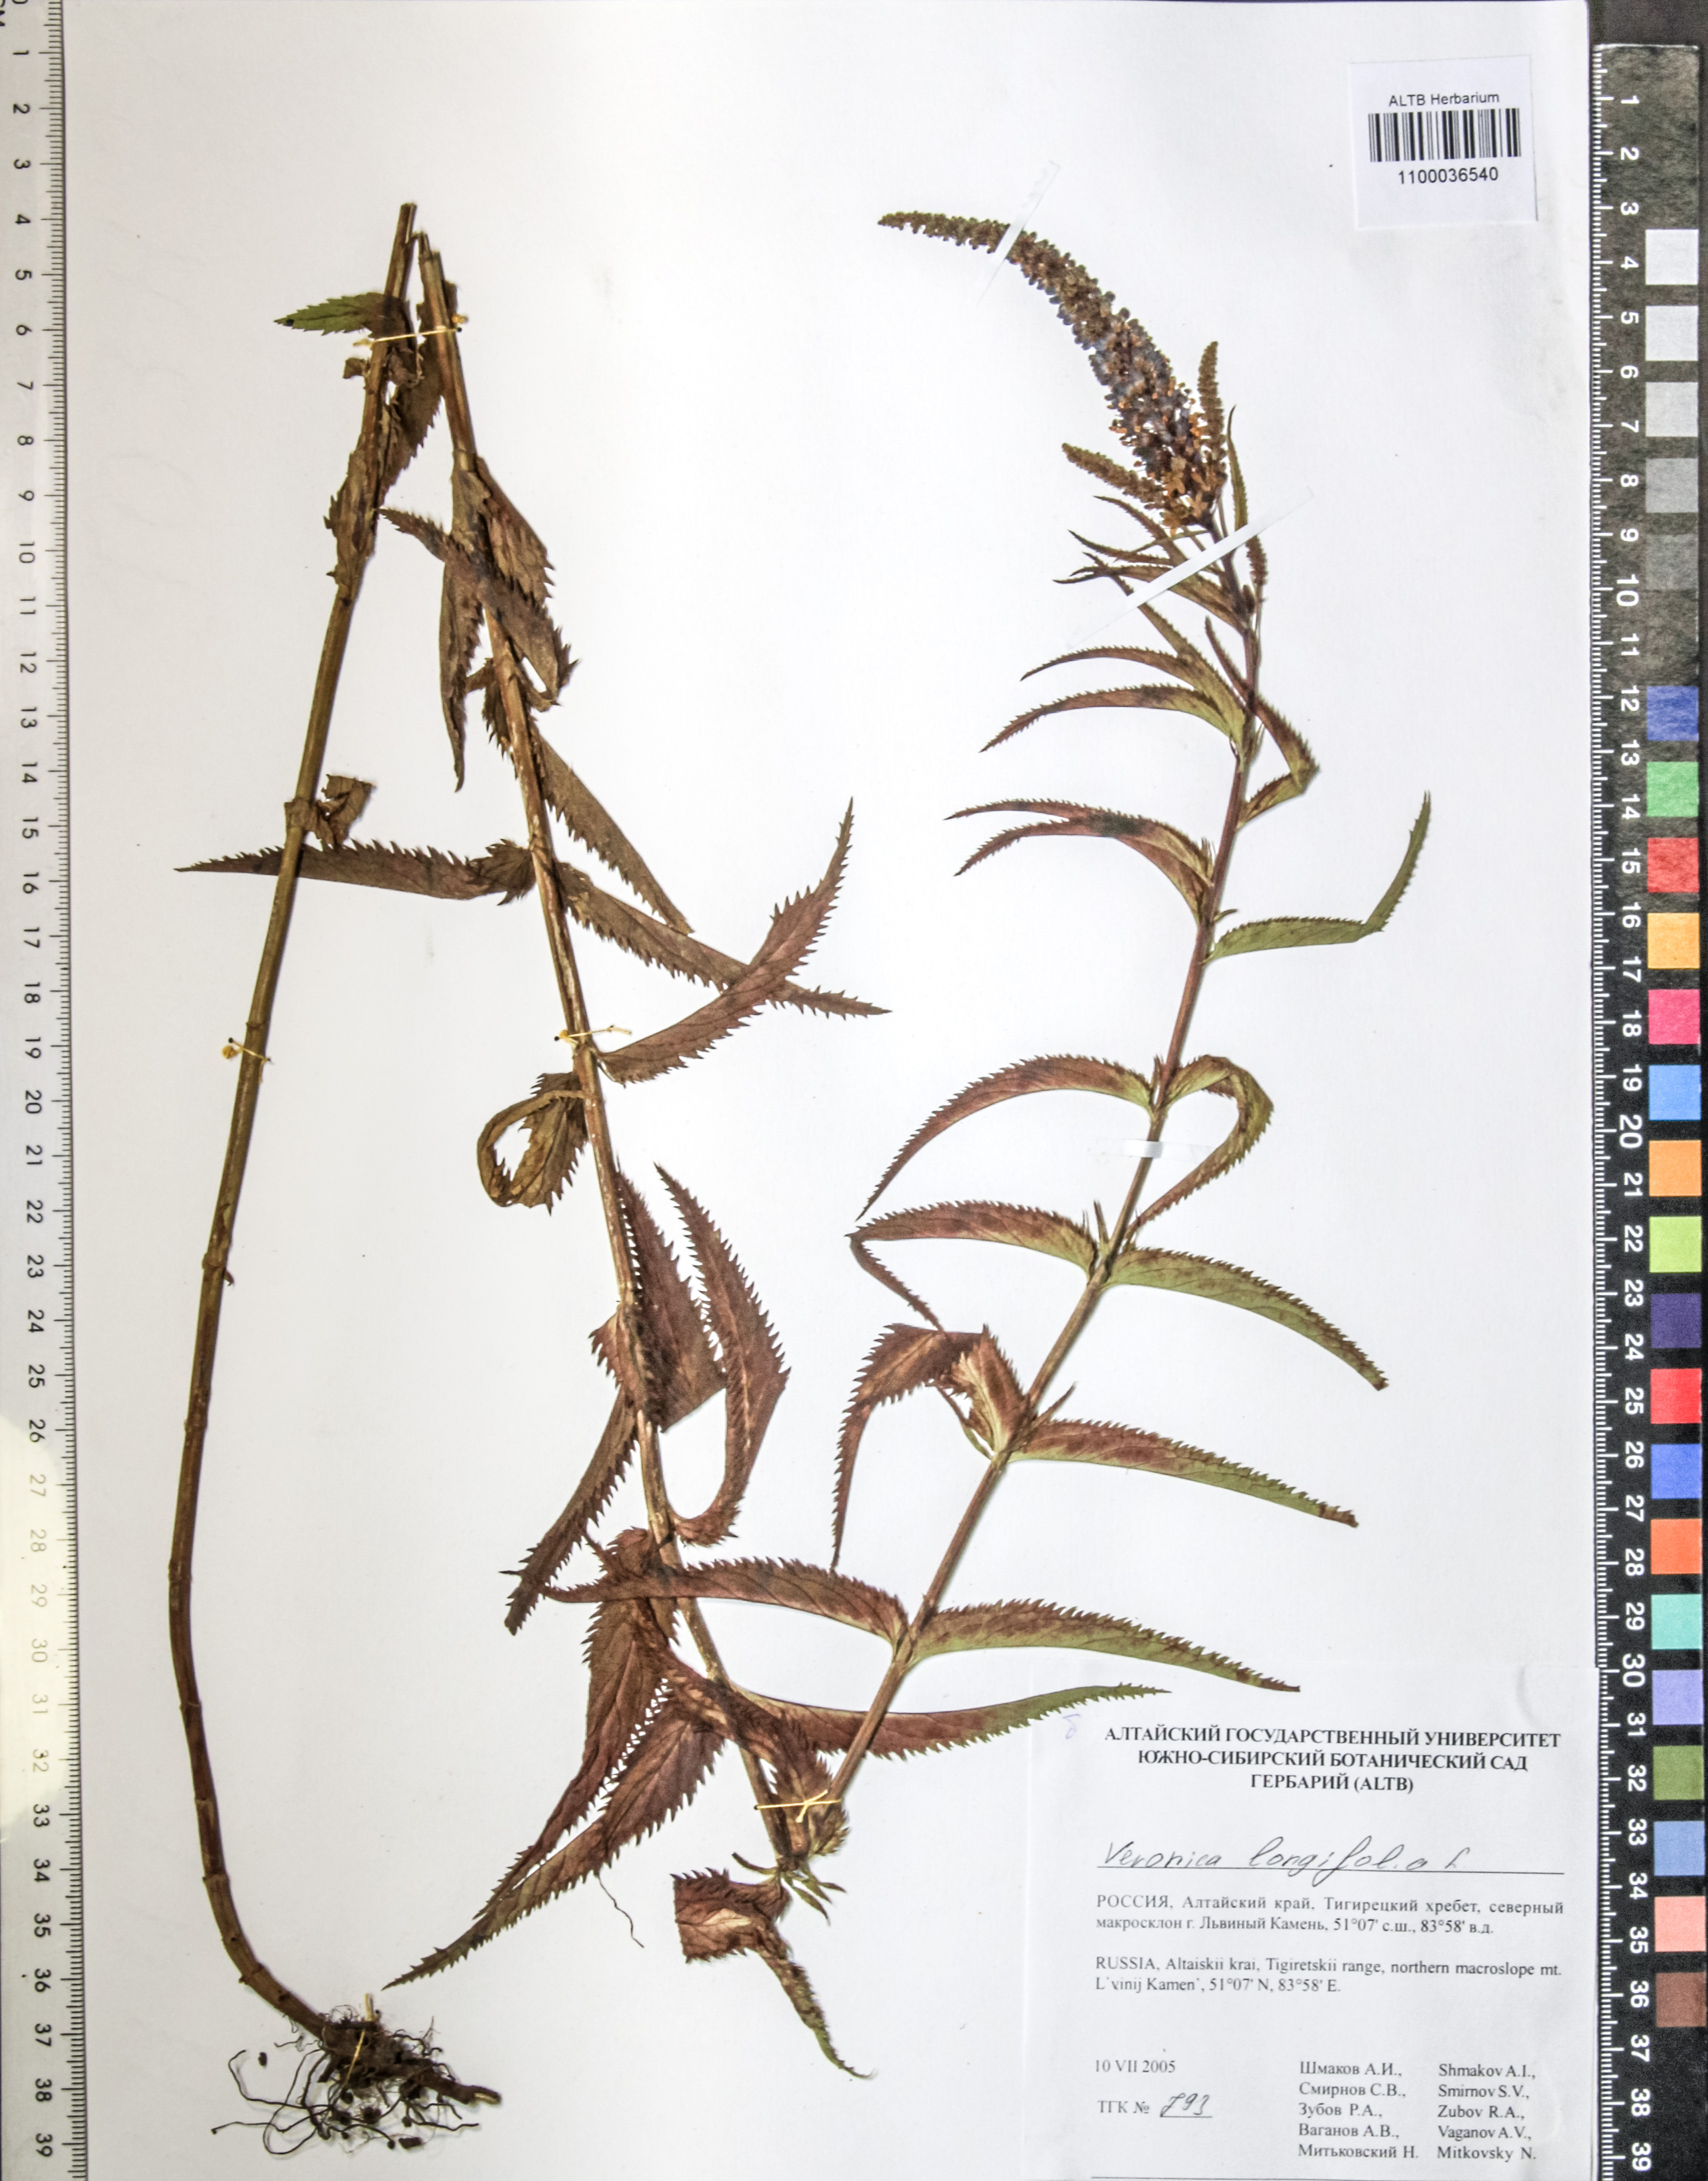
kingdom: Plantae
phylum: Tracheophyta
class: Magnoliopsida
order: Lamiales
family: Plantaginaceae
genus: Veronica
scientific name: Veronica longifolia
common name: Garden speedwell
